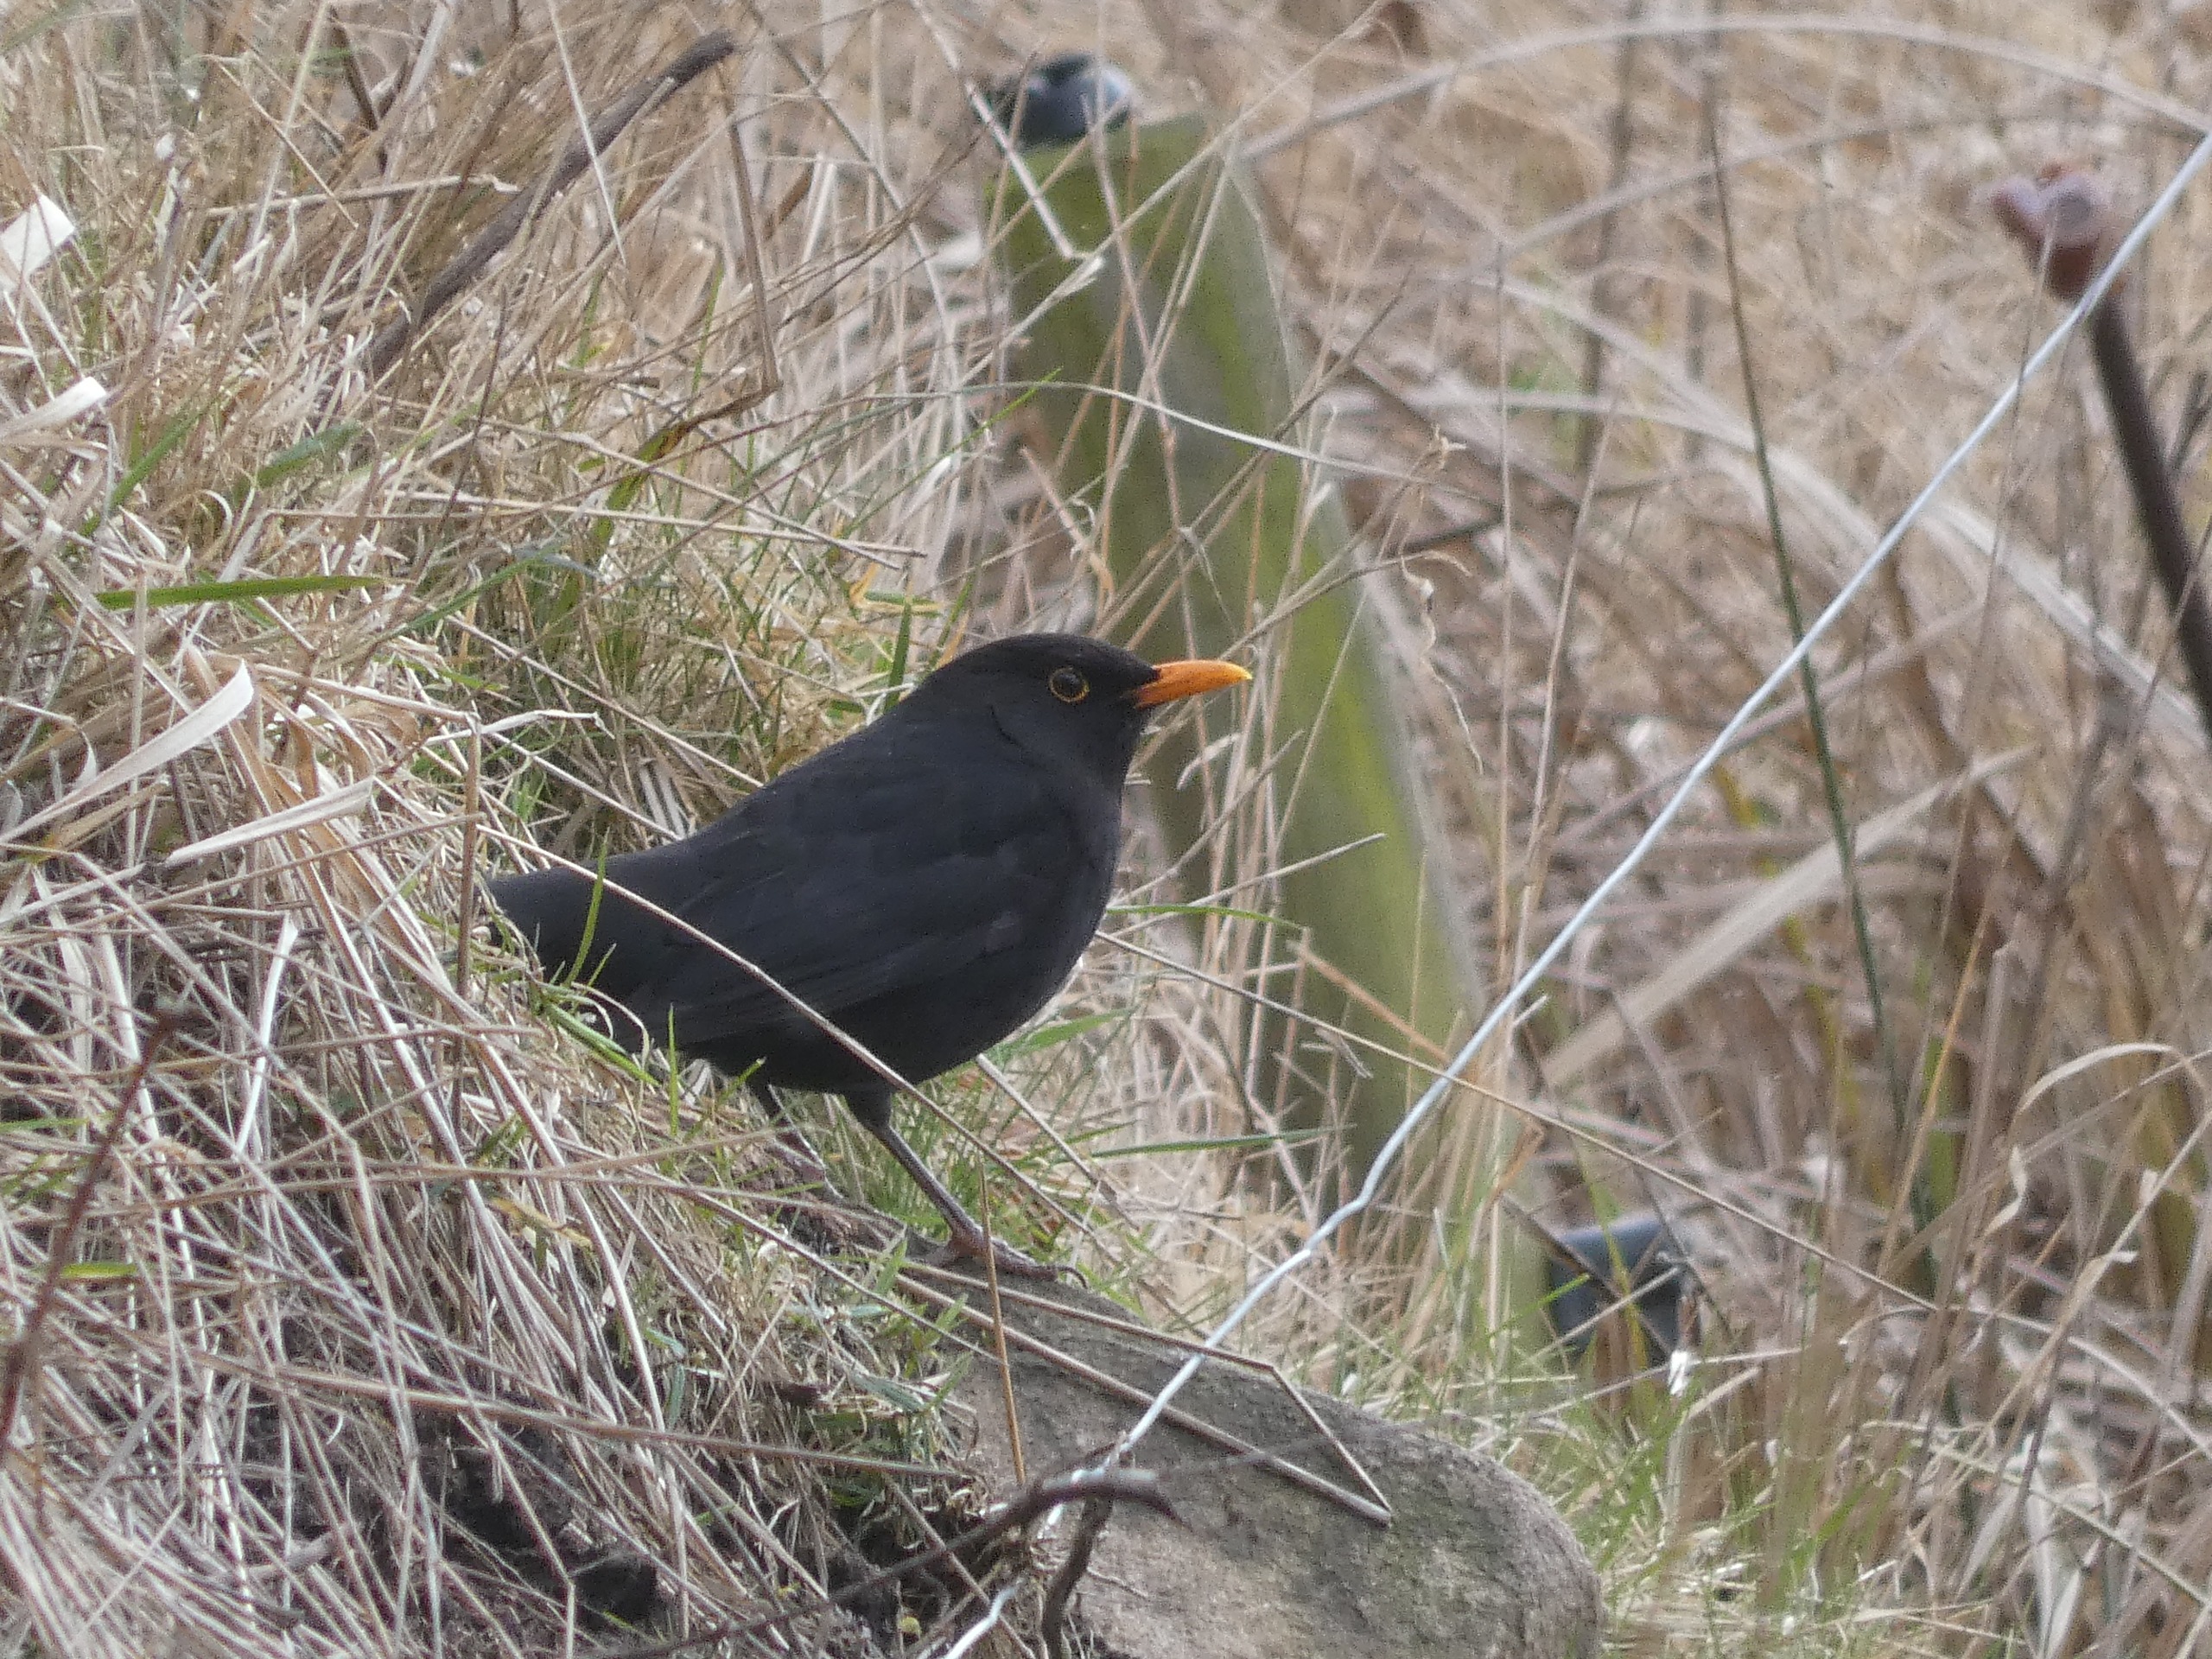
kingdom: Animalia
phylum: Chordata
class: Aves
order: Passeriformes
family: Turdidae
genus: Turdus
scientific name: Turdus merula
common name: Solsort
